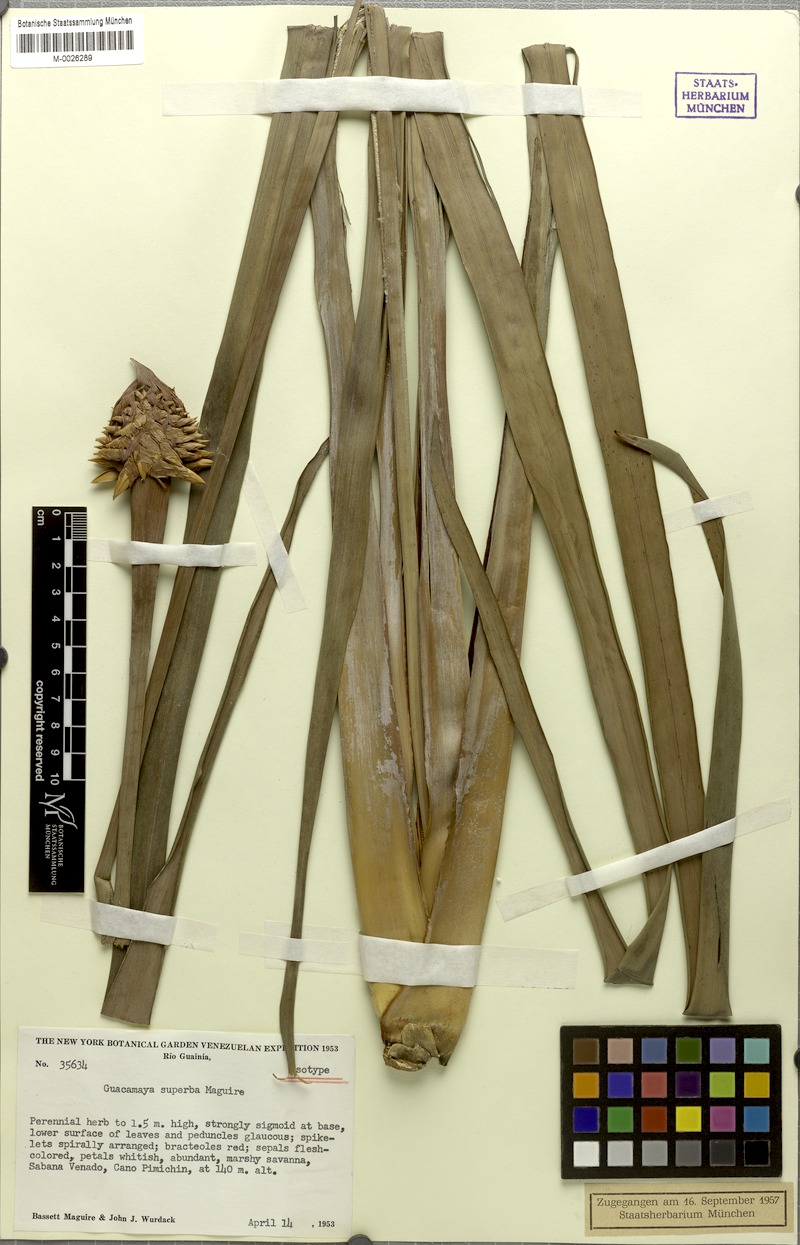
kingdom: Plantae
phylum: Tracheophyta
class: Liliopsida
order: Poales
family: Rapateaceae
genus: Guacamaya
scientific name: Guacamaya superba
